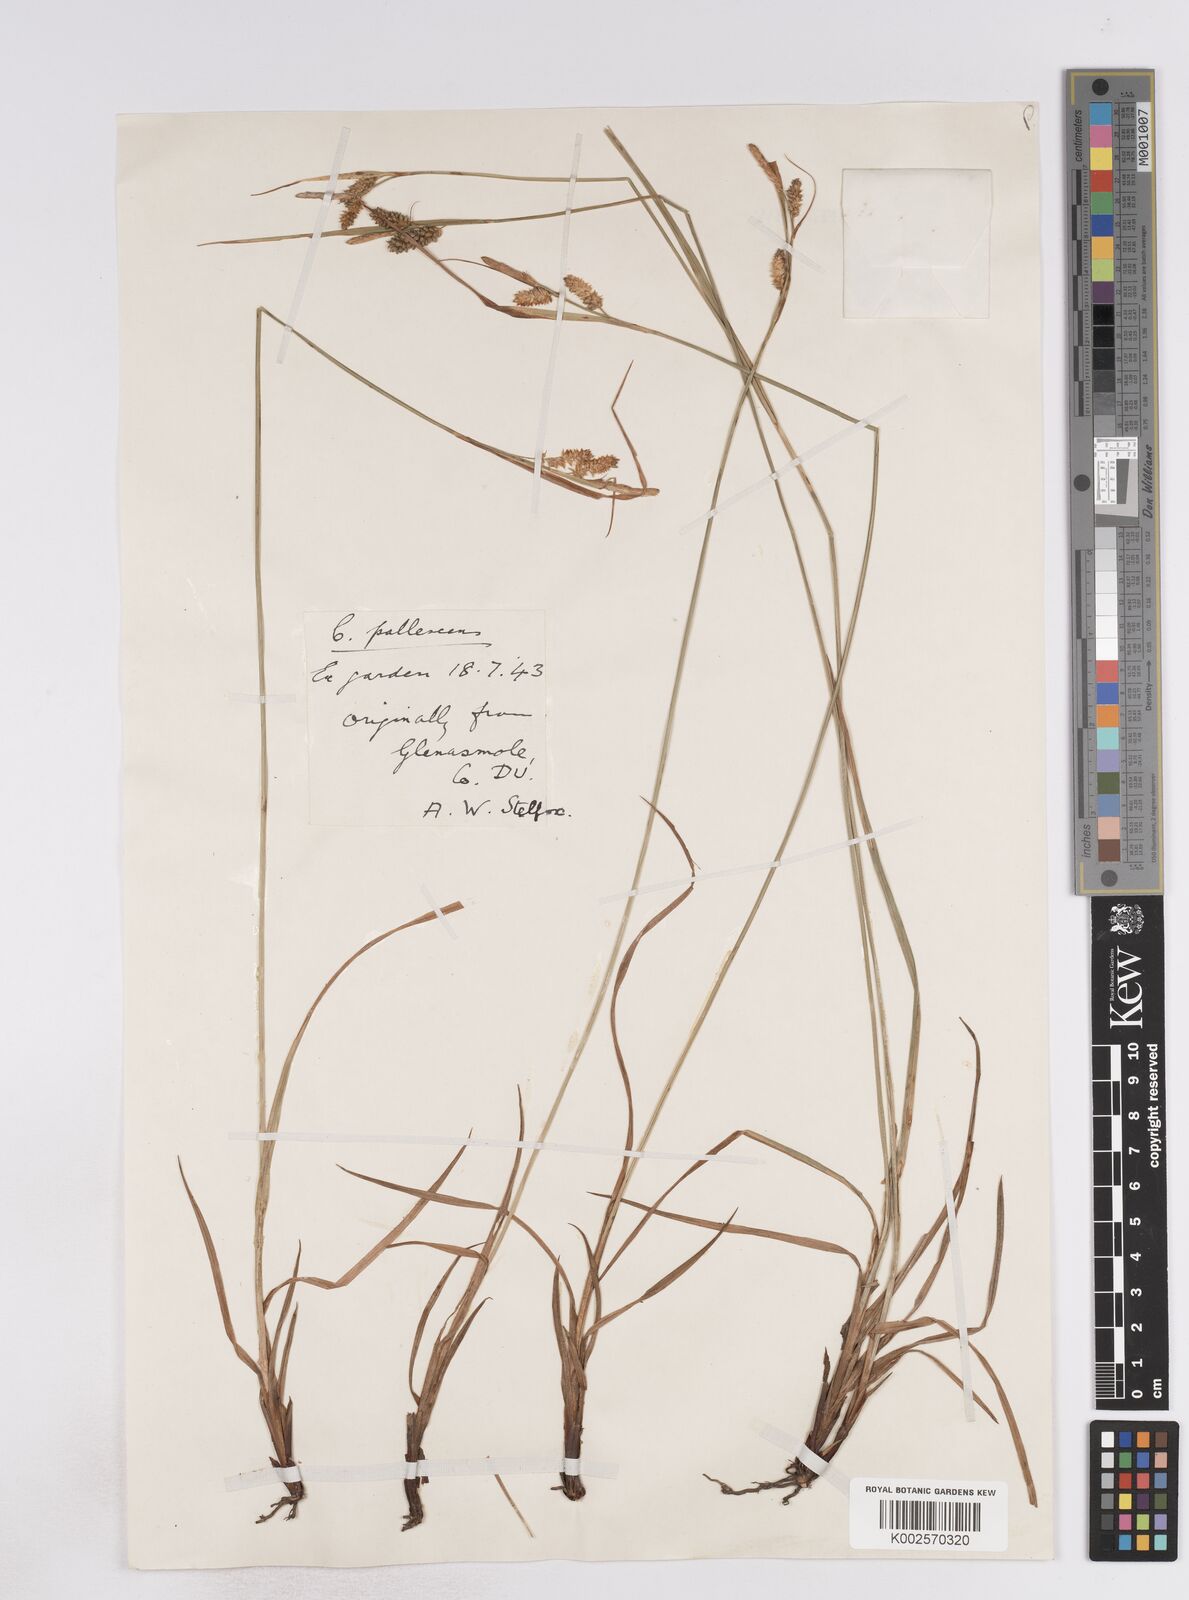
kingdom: Plantae
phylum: Tracheophyta
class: Liliopsida
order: Poales
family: Cyperaceae
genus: Carex
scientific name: Carex pallescens
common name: Pale sedge
